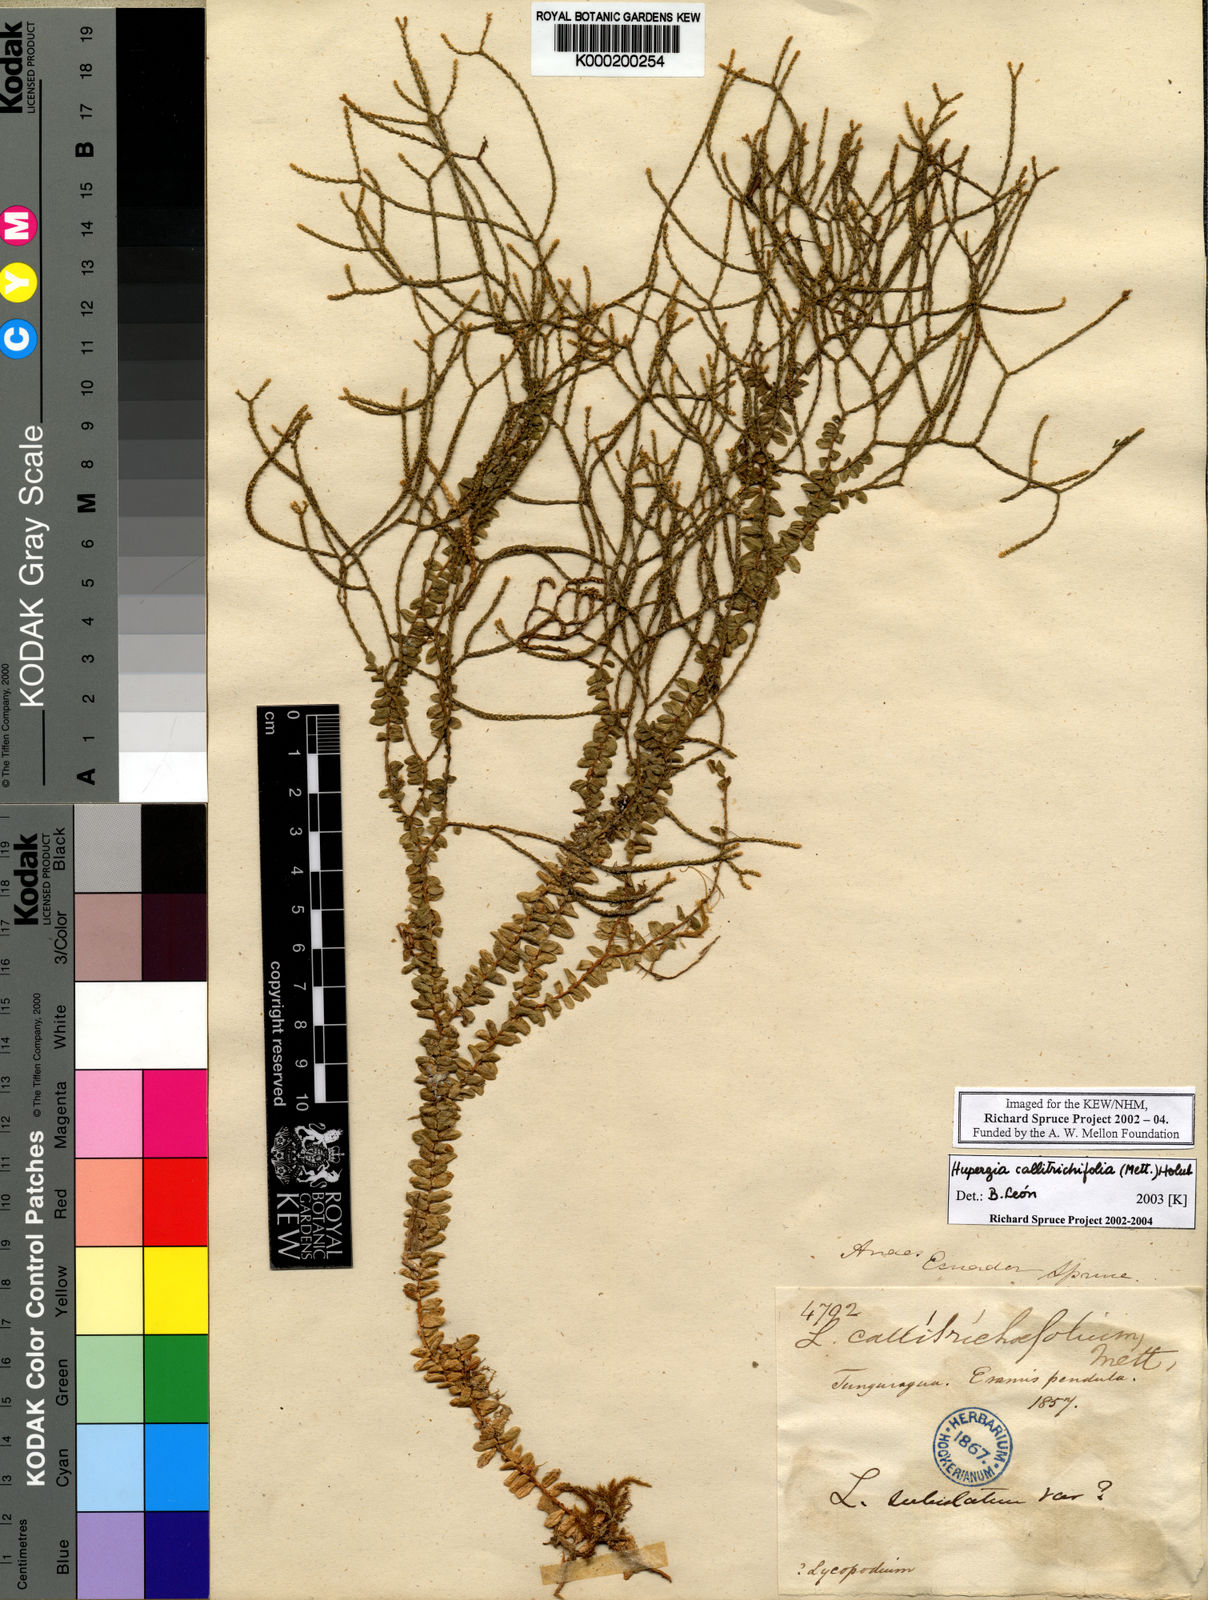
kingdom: Plantae
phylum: Tracheophyta
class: Lycopodiopsida
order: Lycopodiales
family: Lycopodiaceae
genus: Phlegmariurus
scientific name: Phlegmariurus callitrichifolius
